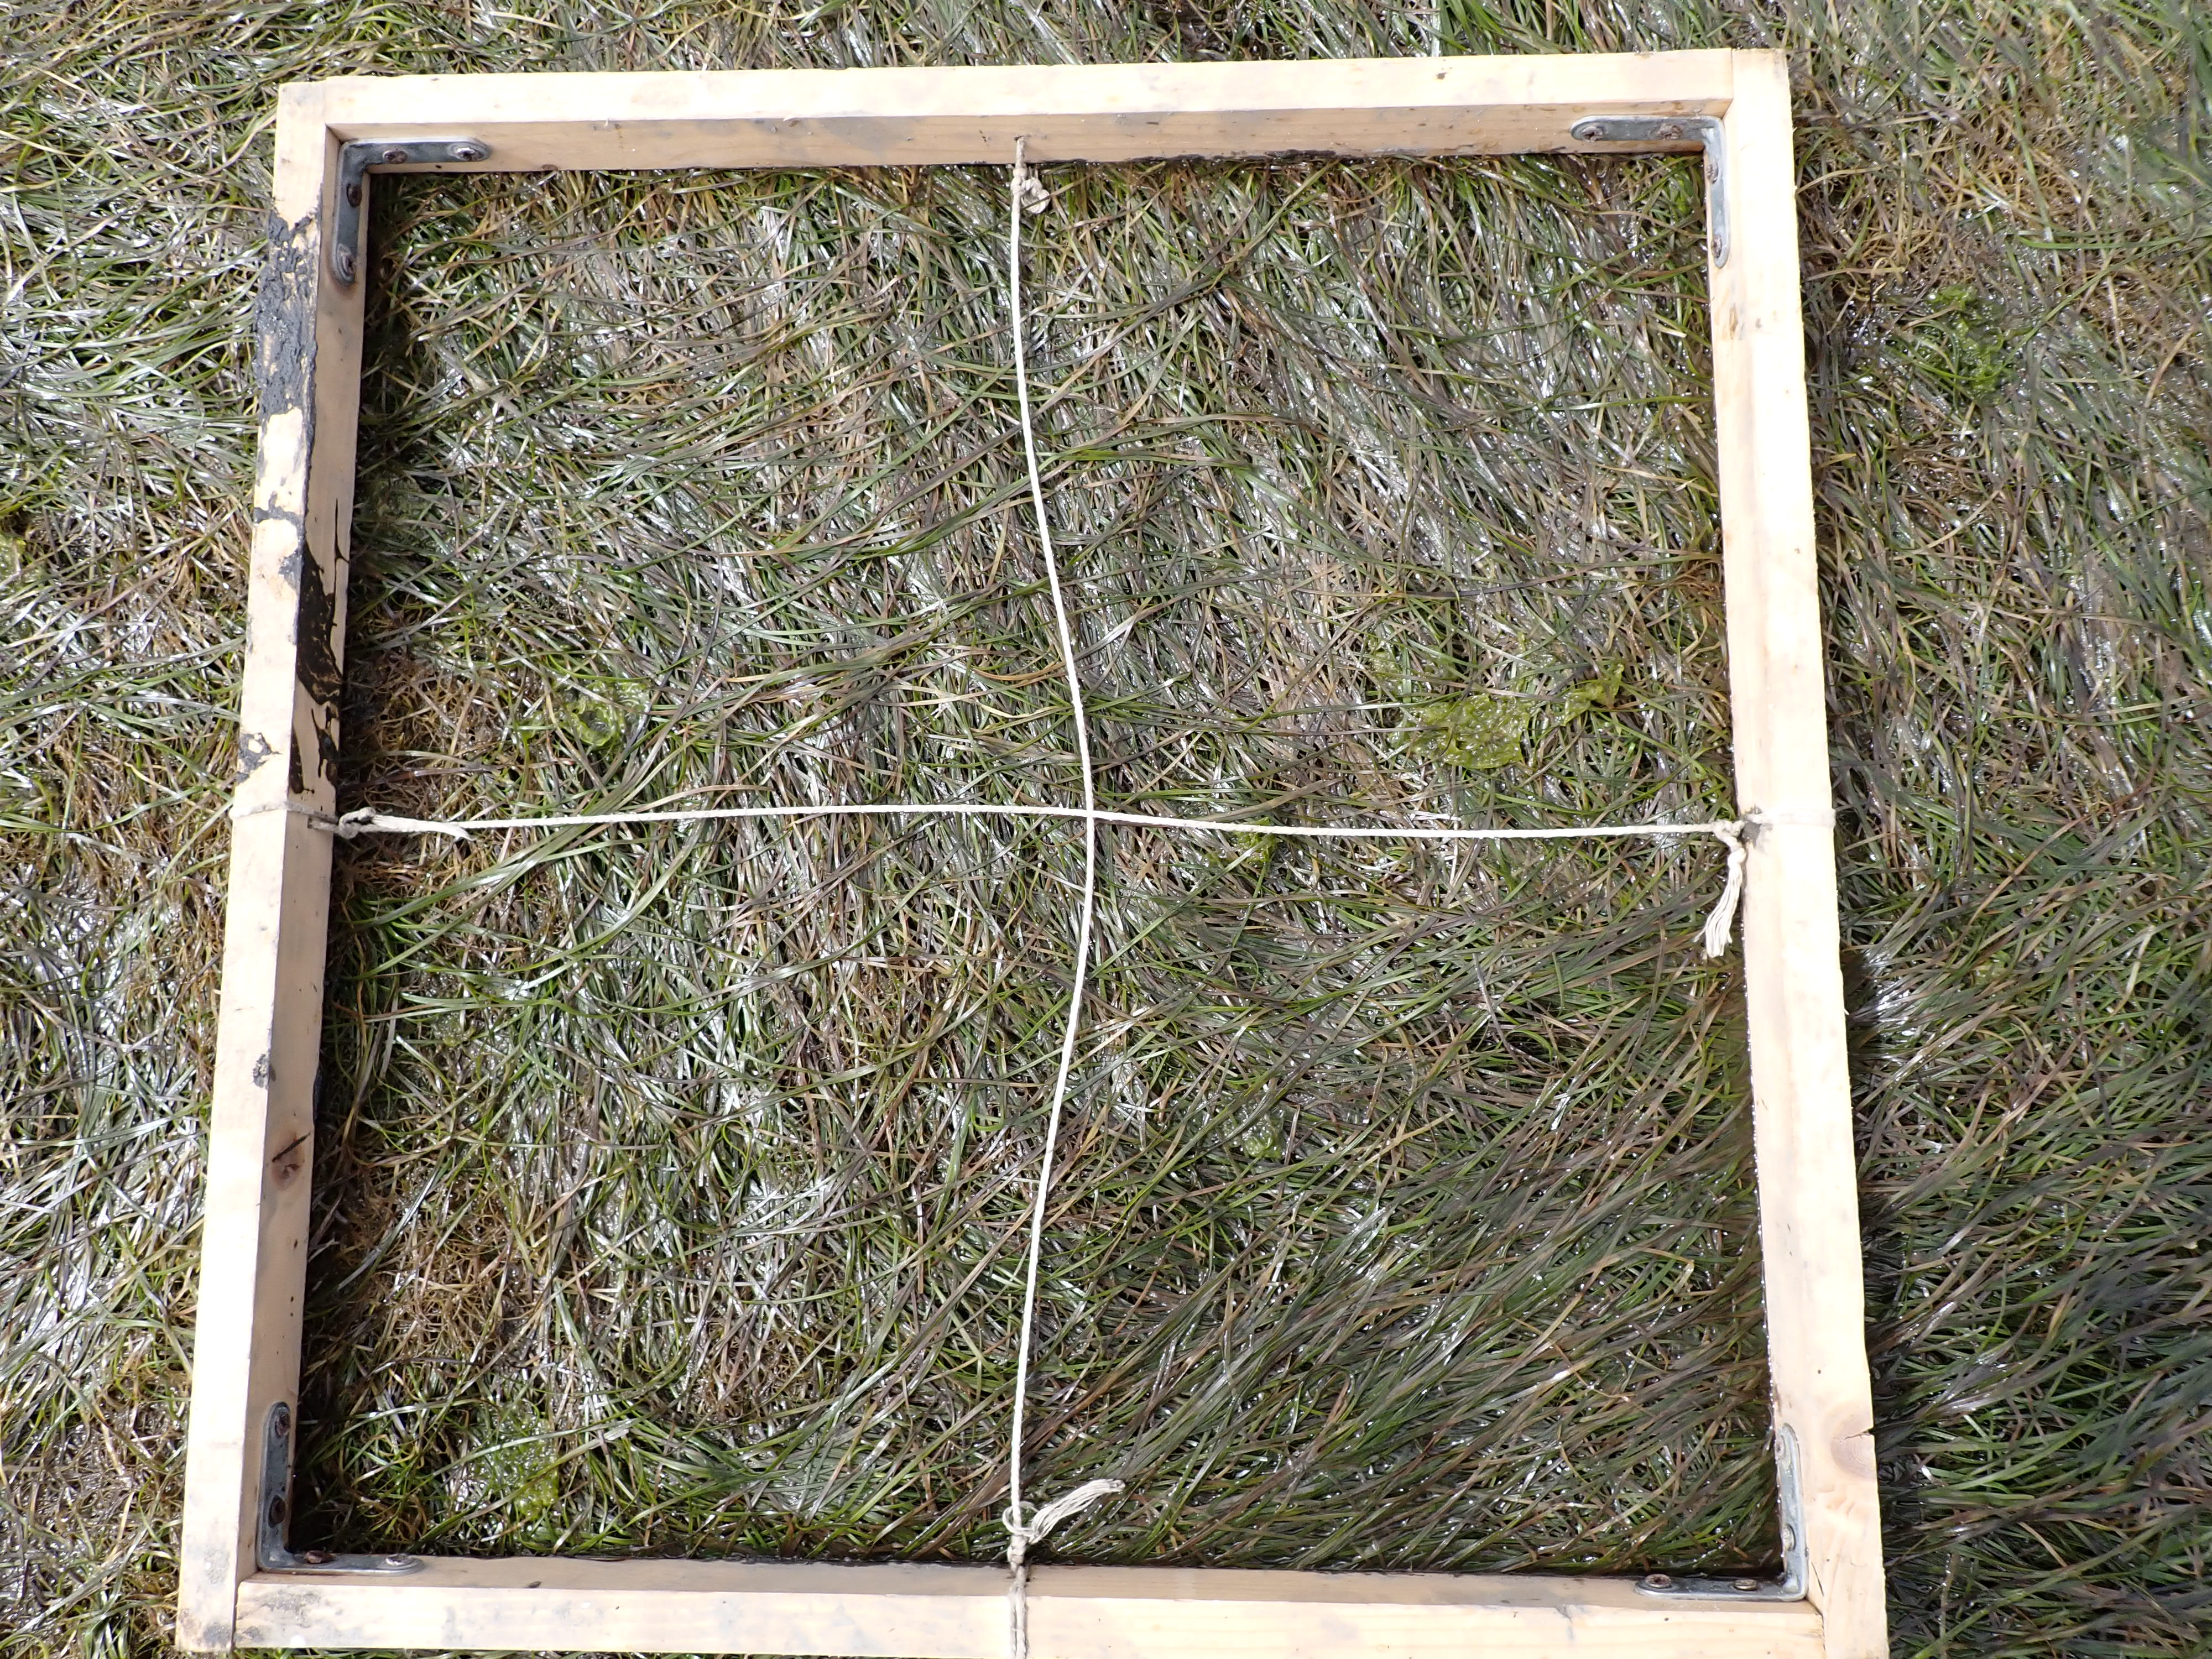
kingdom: Plantae
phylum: Chlorophyta
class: Ulvophyceae
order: Ulvales
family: Ulvaceae
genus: Ulva
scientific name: Ulva
